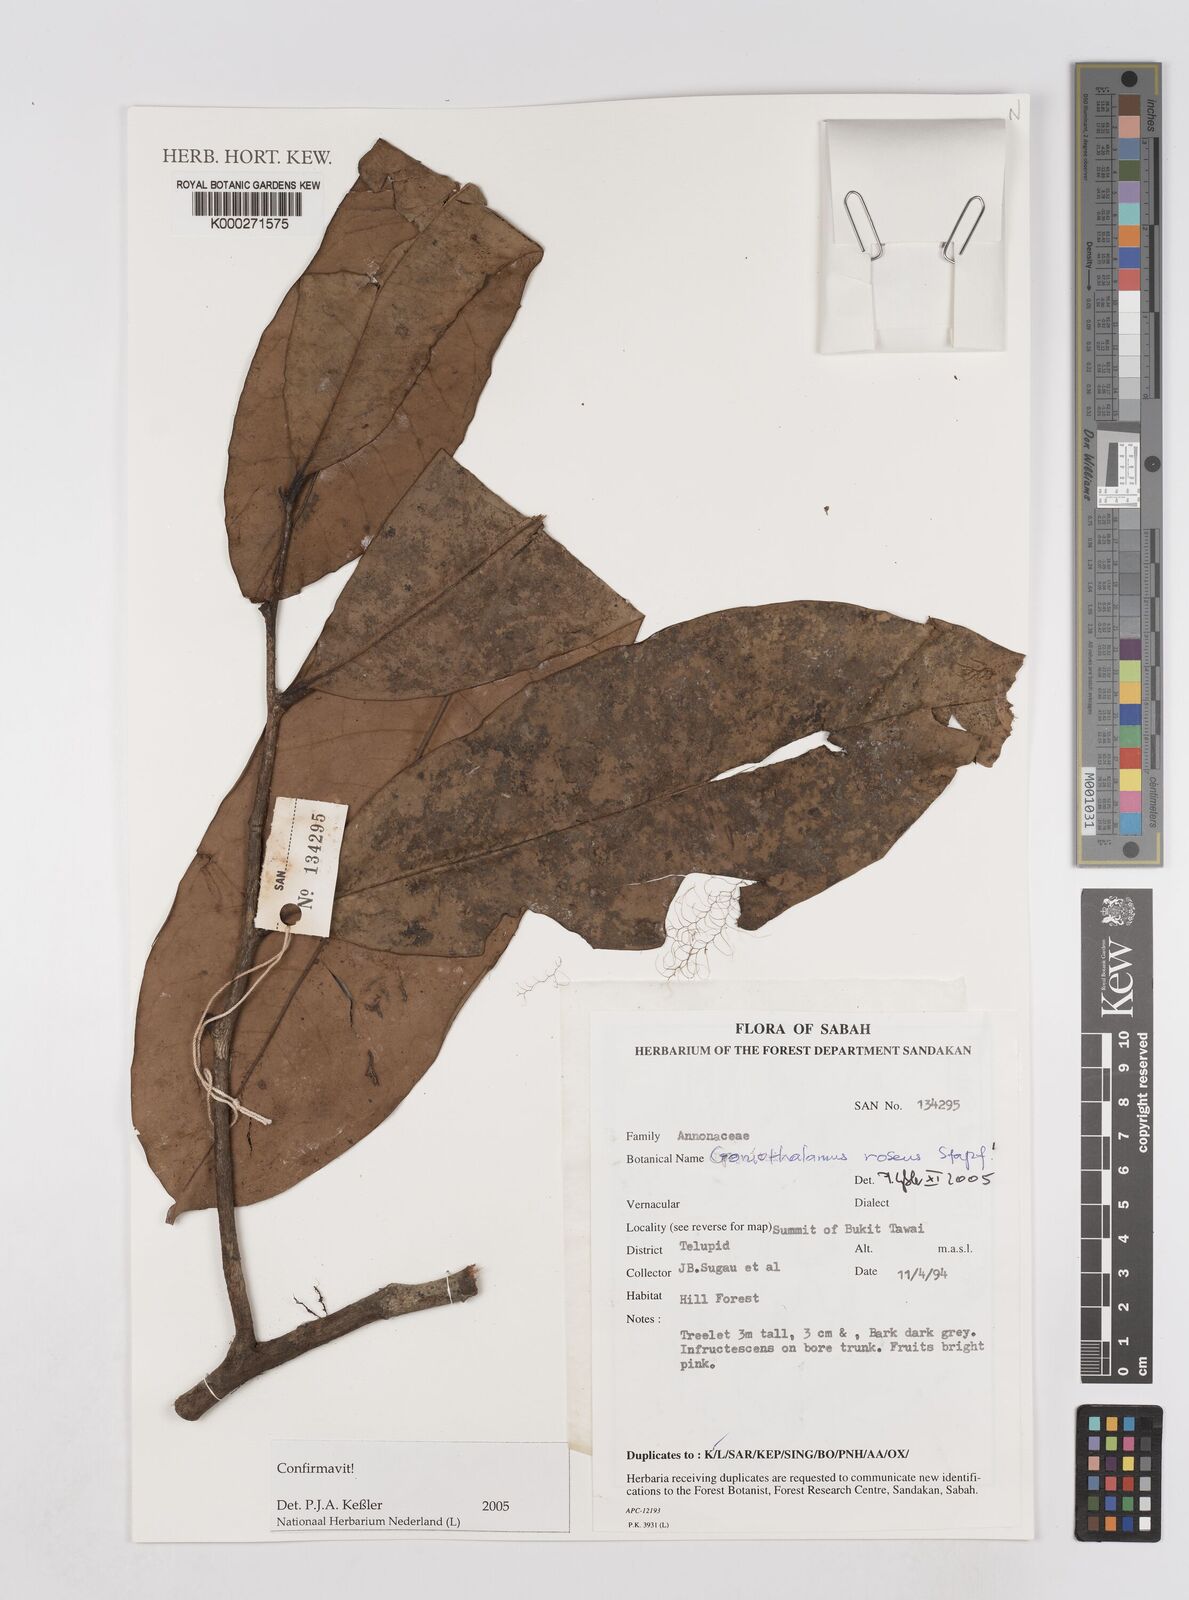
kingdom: Plantae
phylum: Tracheophyta
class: Magnoliopsida
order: Magnoliales
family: Annonaceae
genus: Goniothalamus
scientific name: Goniothalamus
